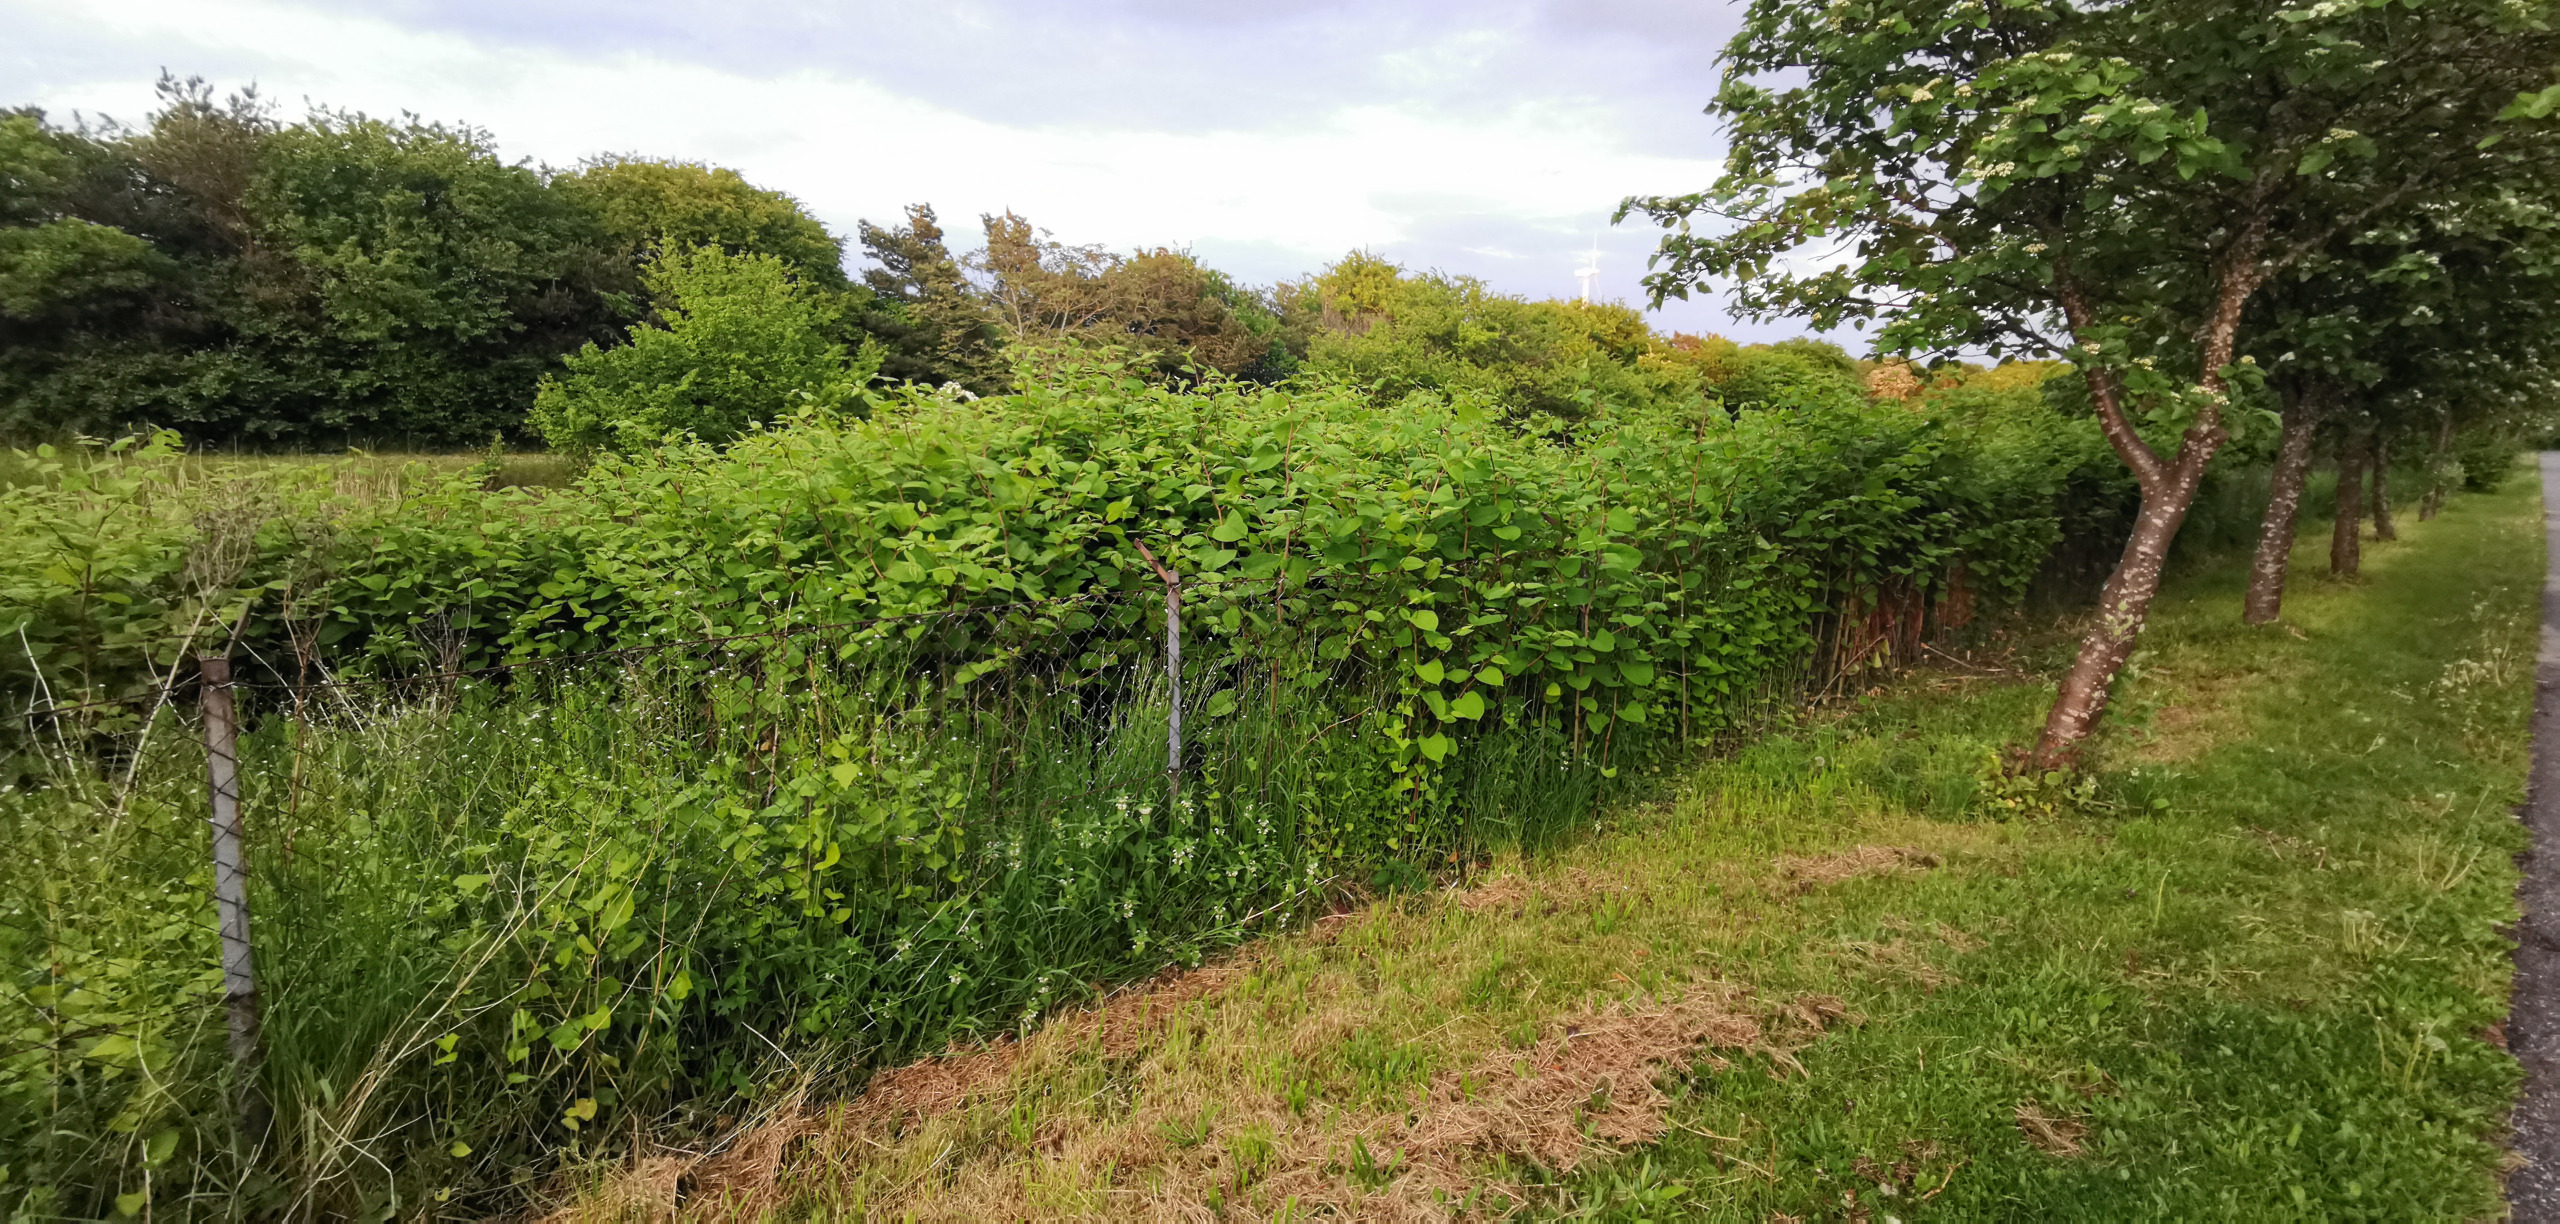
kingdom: Plantae
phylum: Tracheophyta
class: Magnoliopsida
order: Caryophyllales
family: Polygonaceae
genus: Reynoutria
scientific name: Reynoutria
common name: Pileurt (Reynoutria-slægten)
